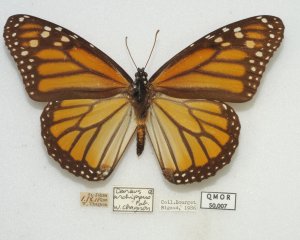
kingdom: Animalia
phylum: Arthropoda
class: Insecta
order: Lepidoptera
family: Nymphalidae
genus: Danaus
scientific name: Danaus plexippus
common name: Monarch
